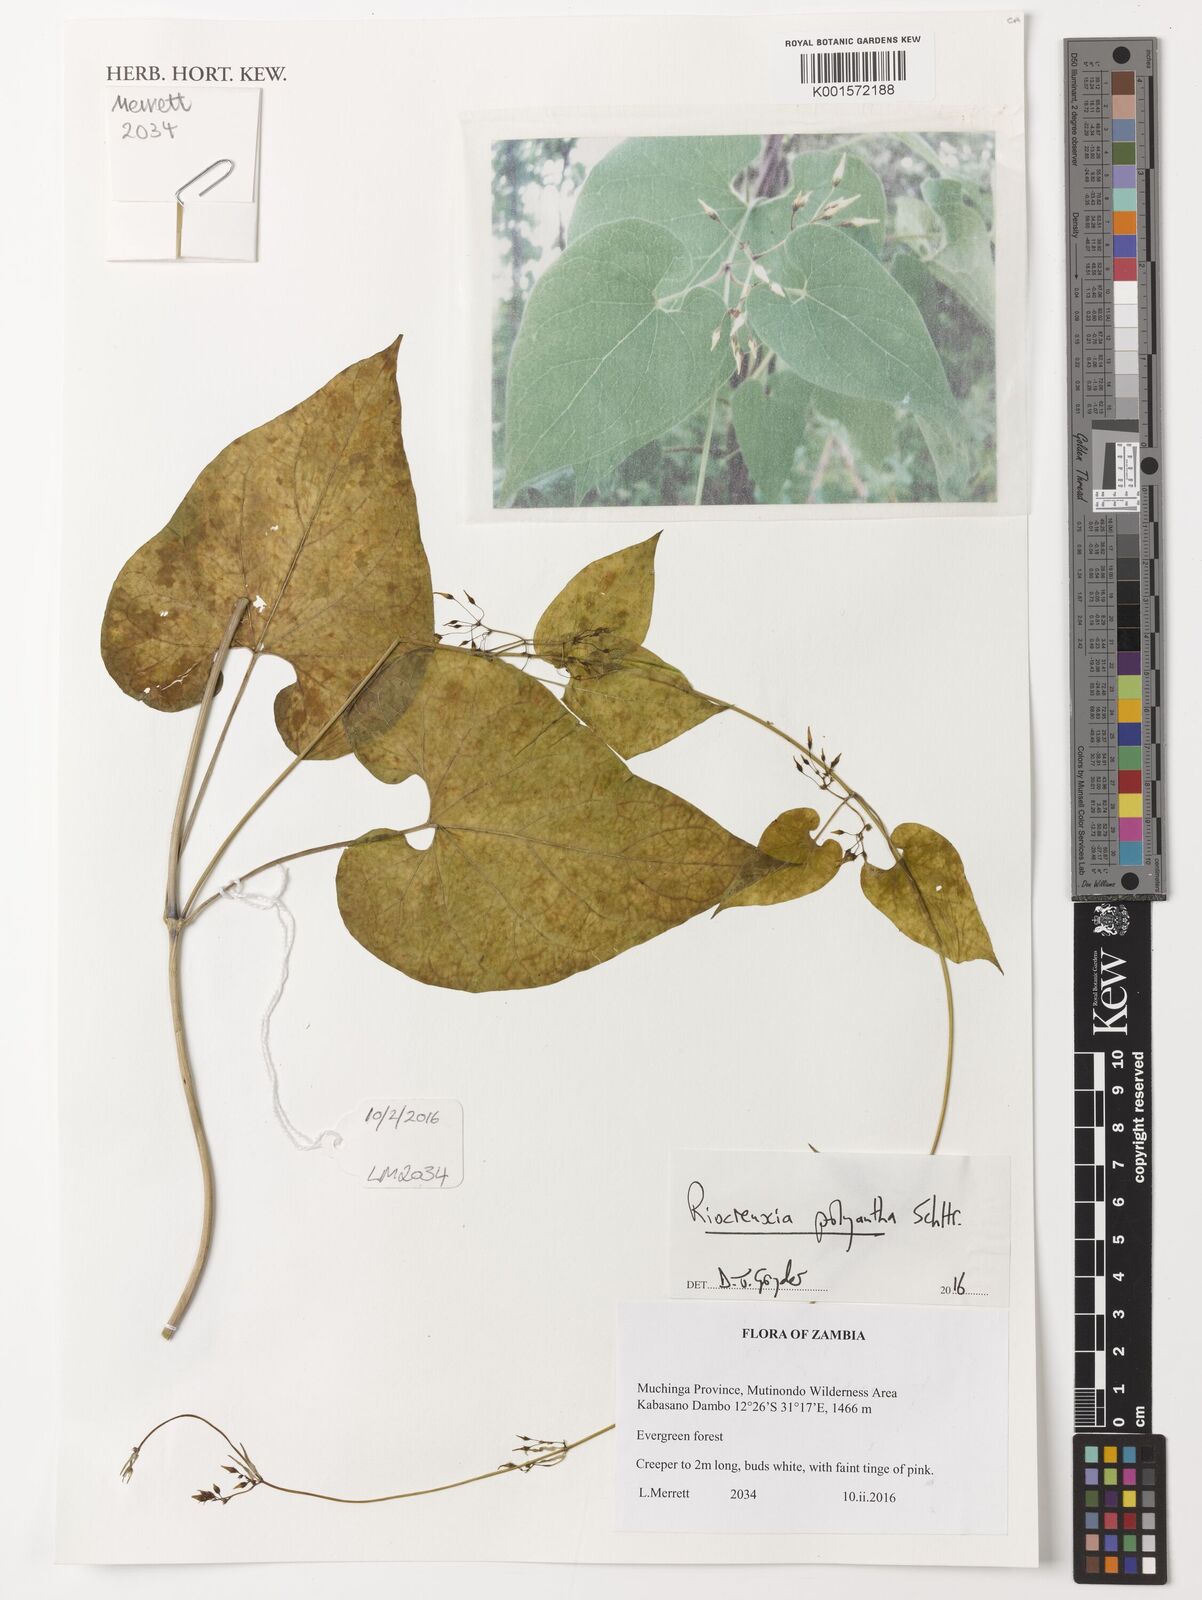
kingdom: Plantae
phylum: Tracheophyta
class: Magnoliopsida
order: Gentianales
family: Apocynaceae
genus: Riocreuxia
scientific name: Riocreuxia polyantha
